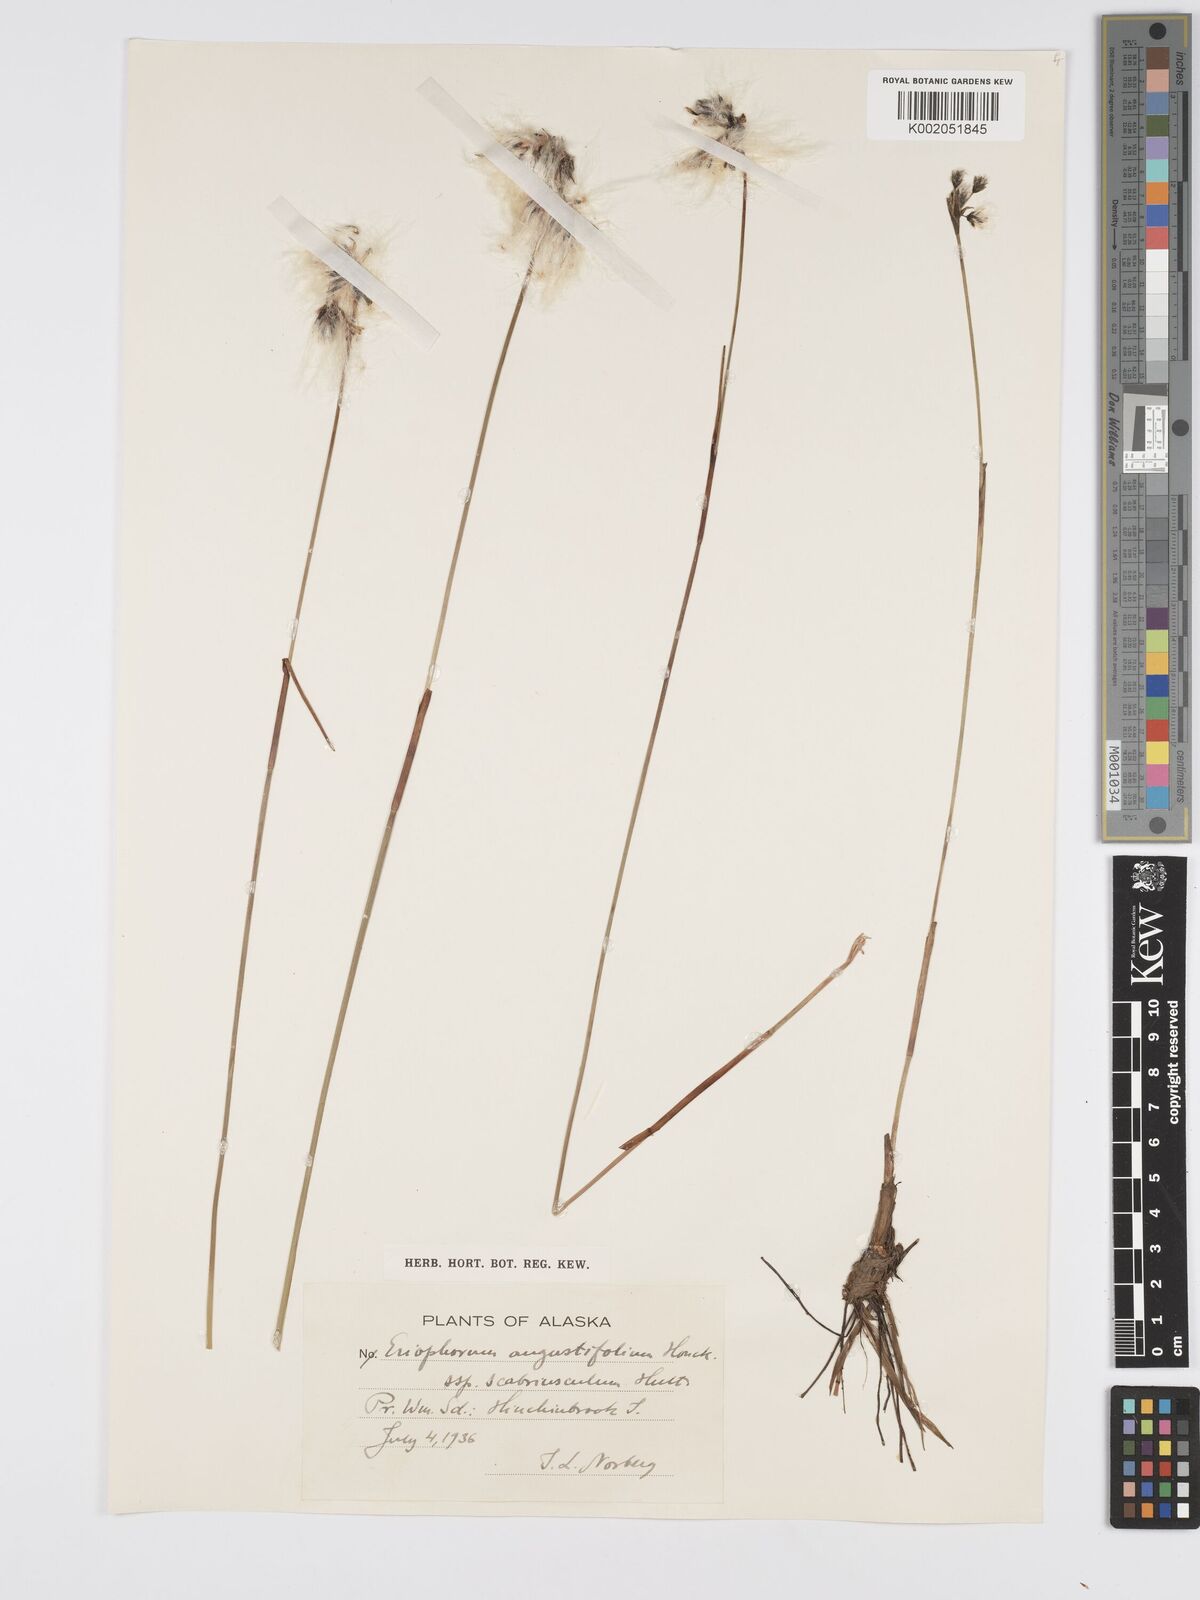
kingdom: Plantae
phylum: Tracheophyta
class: Liliopsida
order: Poales
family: Cyperaceae
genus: Eriophorum
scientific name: Eriophorum angustifolium
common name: Common cottongrass
